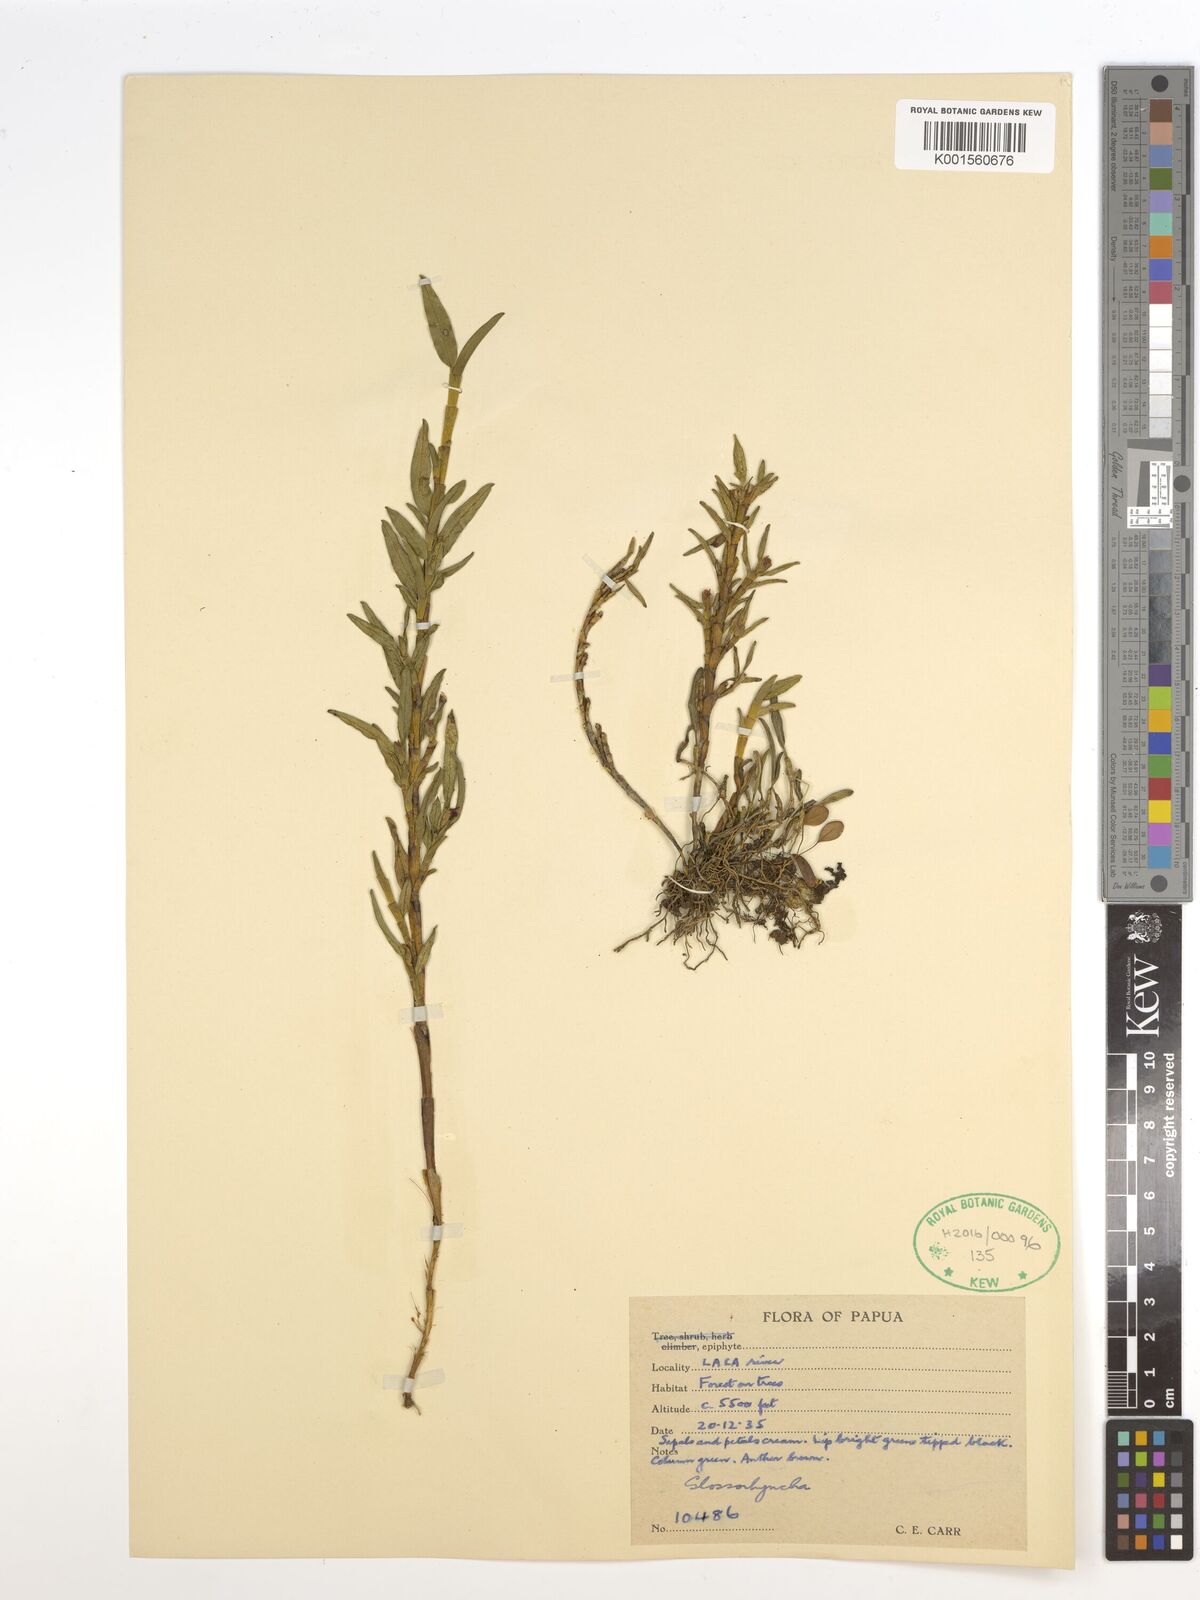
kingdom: Plantae
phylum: Tracheophyta
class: Liliopsida
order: Asparagales
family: Orchidaceae
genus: Glomera
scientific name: Glomera
